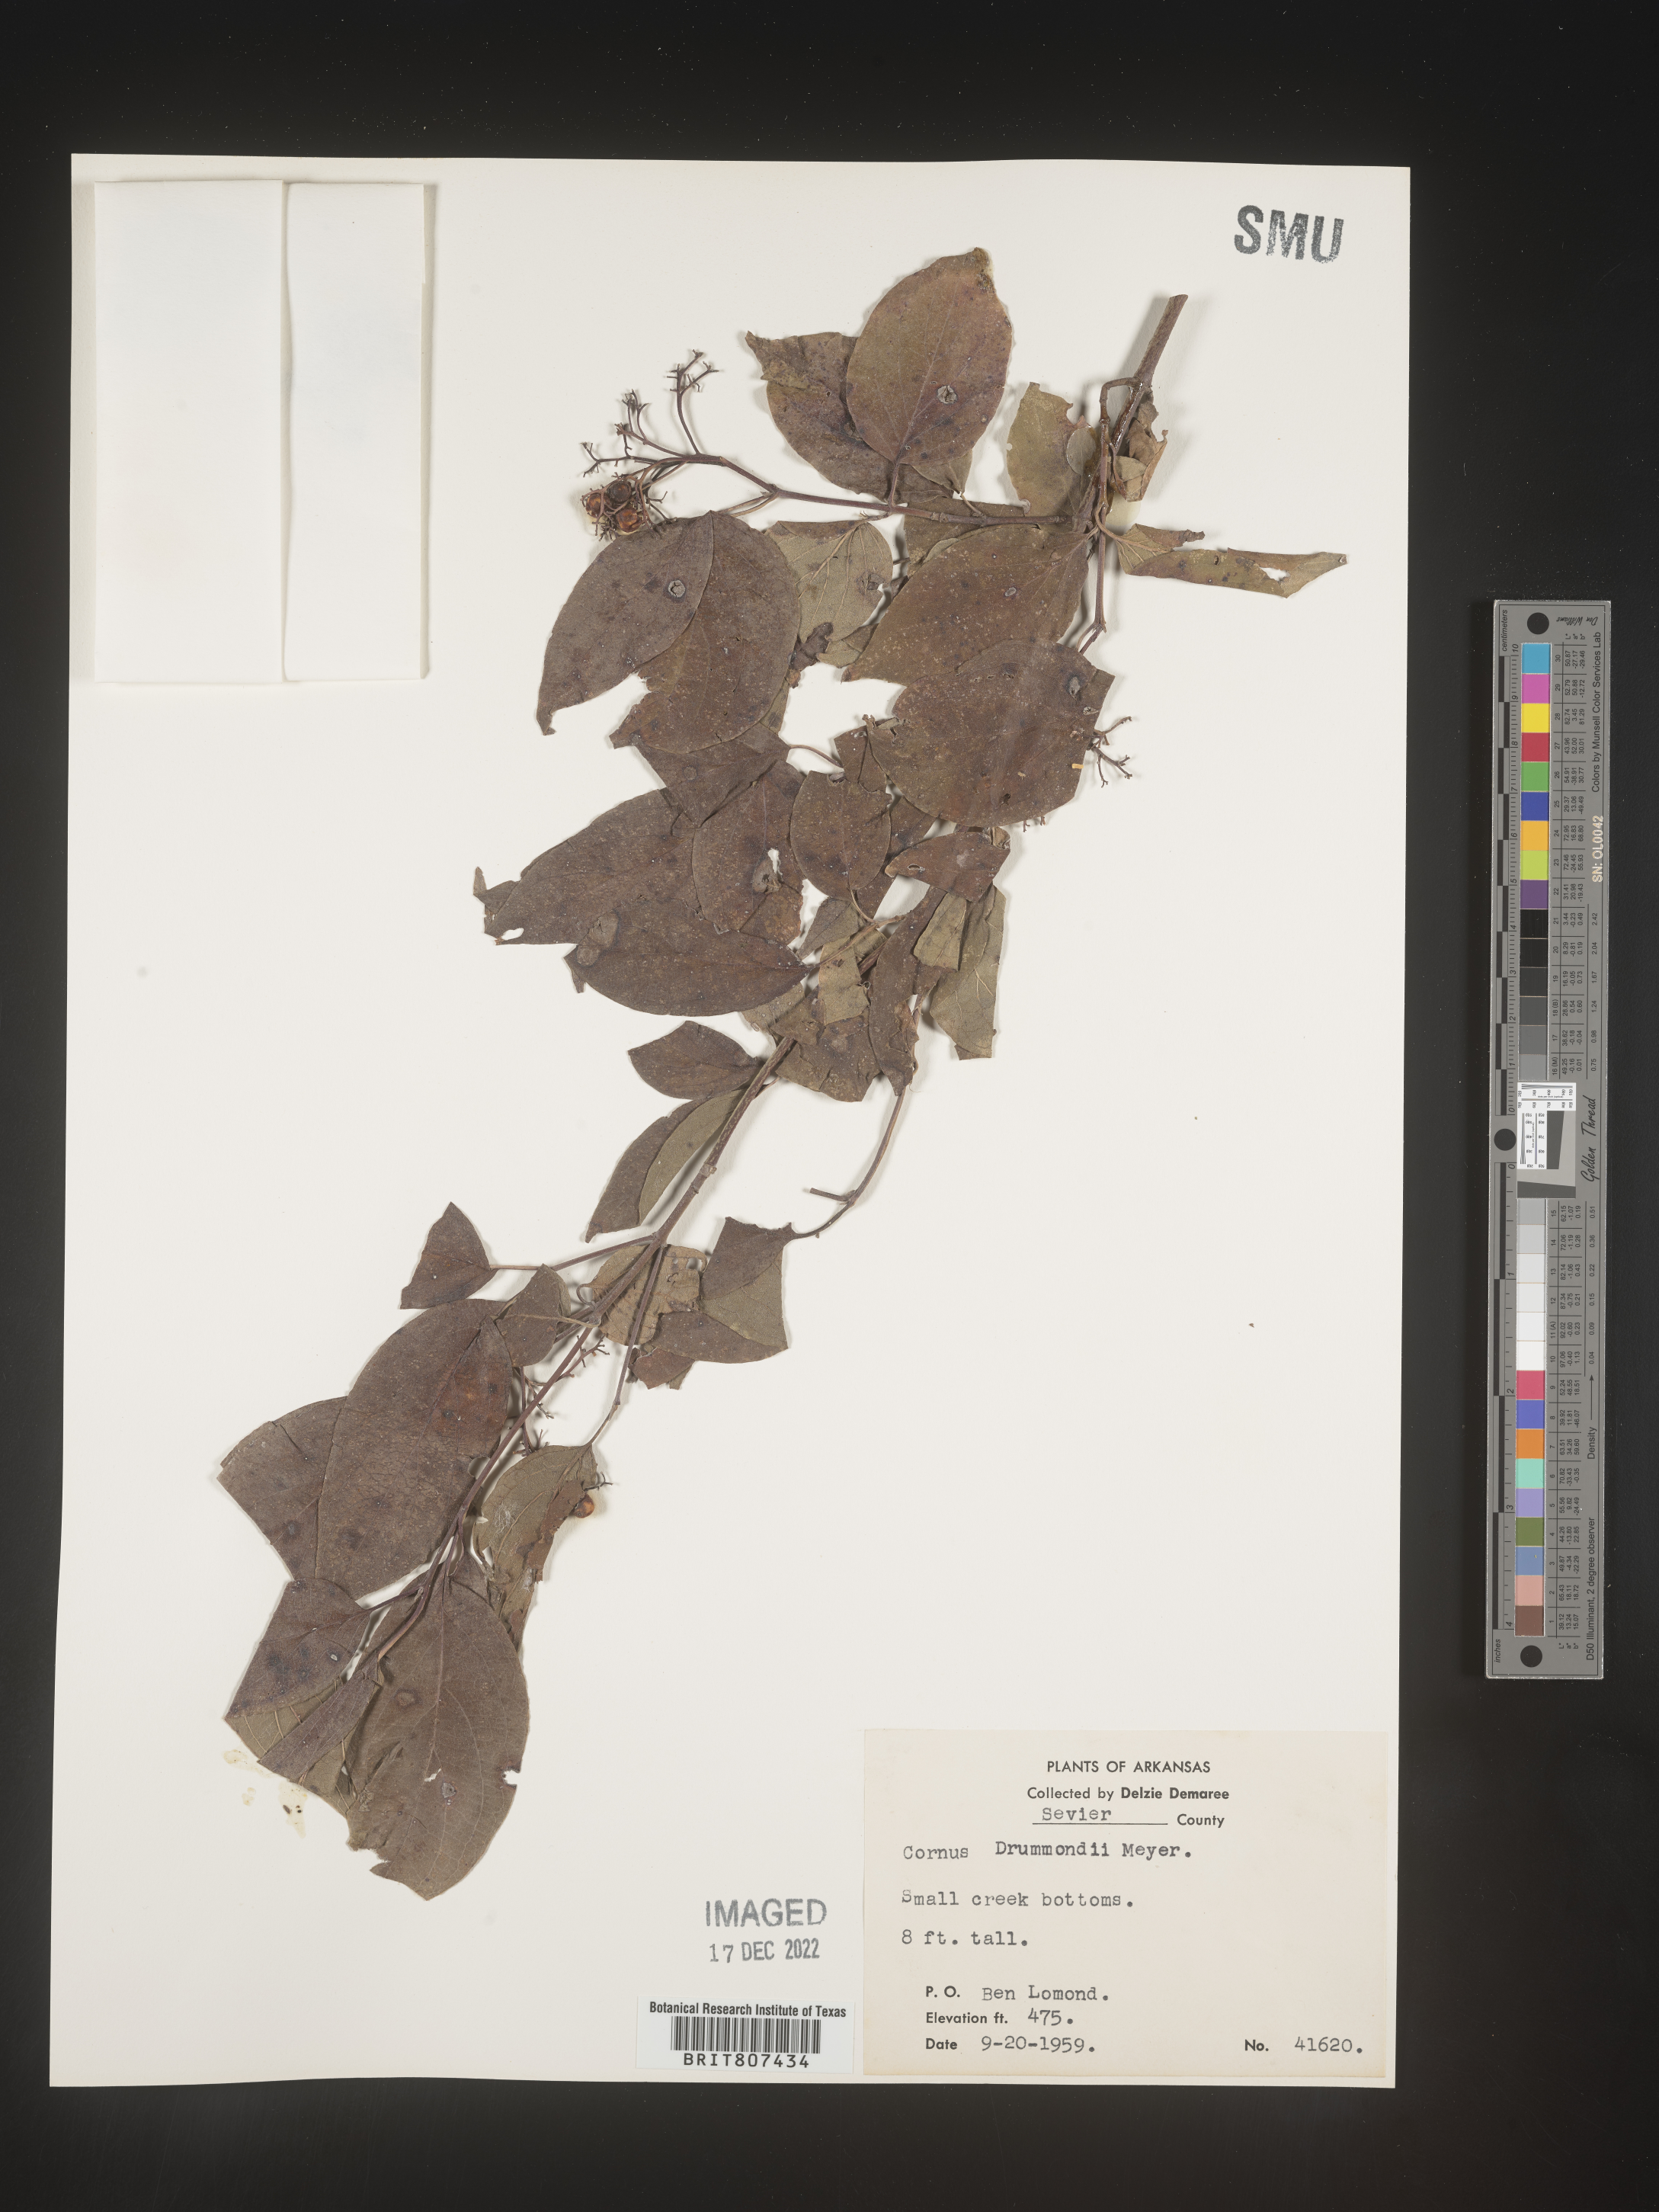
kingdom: Plantae
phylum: Tracheophyta
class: Magnoliopsida
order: Cornales
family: Cornaceae
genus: Cornus
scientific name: Cornus drummondii
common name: Rough-leaf dogwood
